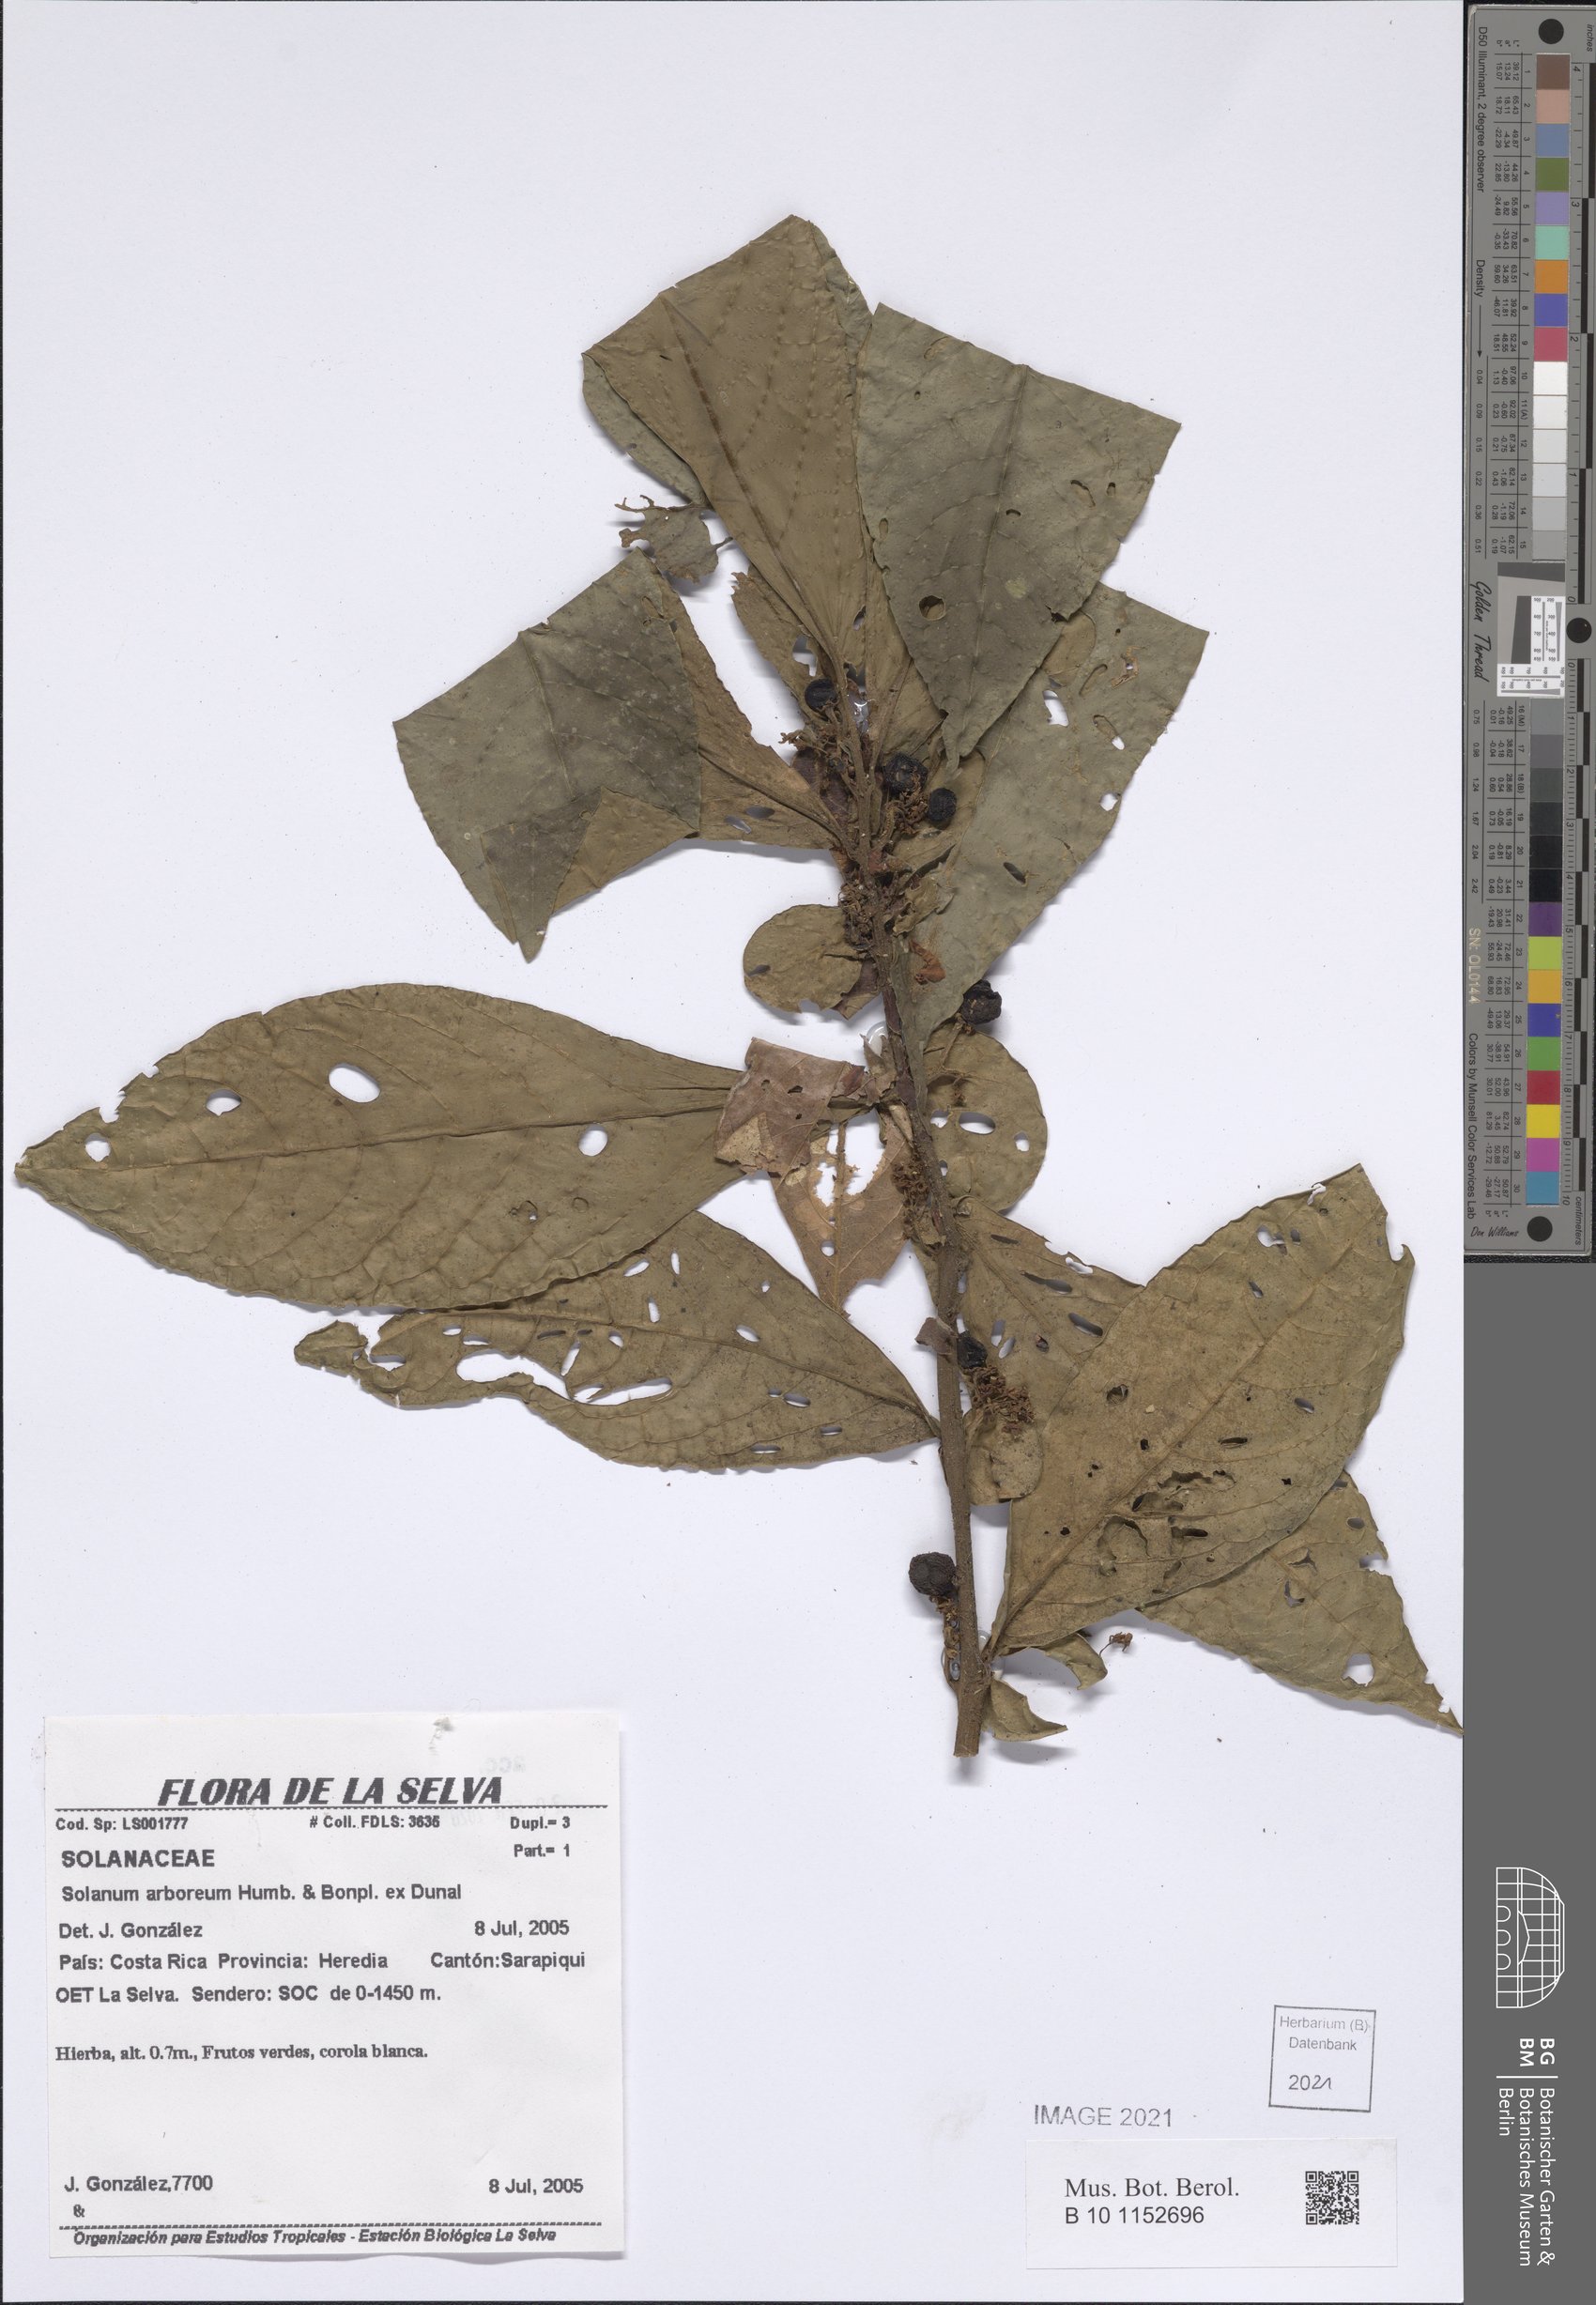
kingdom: Plantae
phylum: Tracheophyta
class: Magnoliopsida
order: Solanales
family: Solanaceae
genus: Solanum
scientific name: Solanum arboreum
